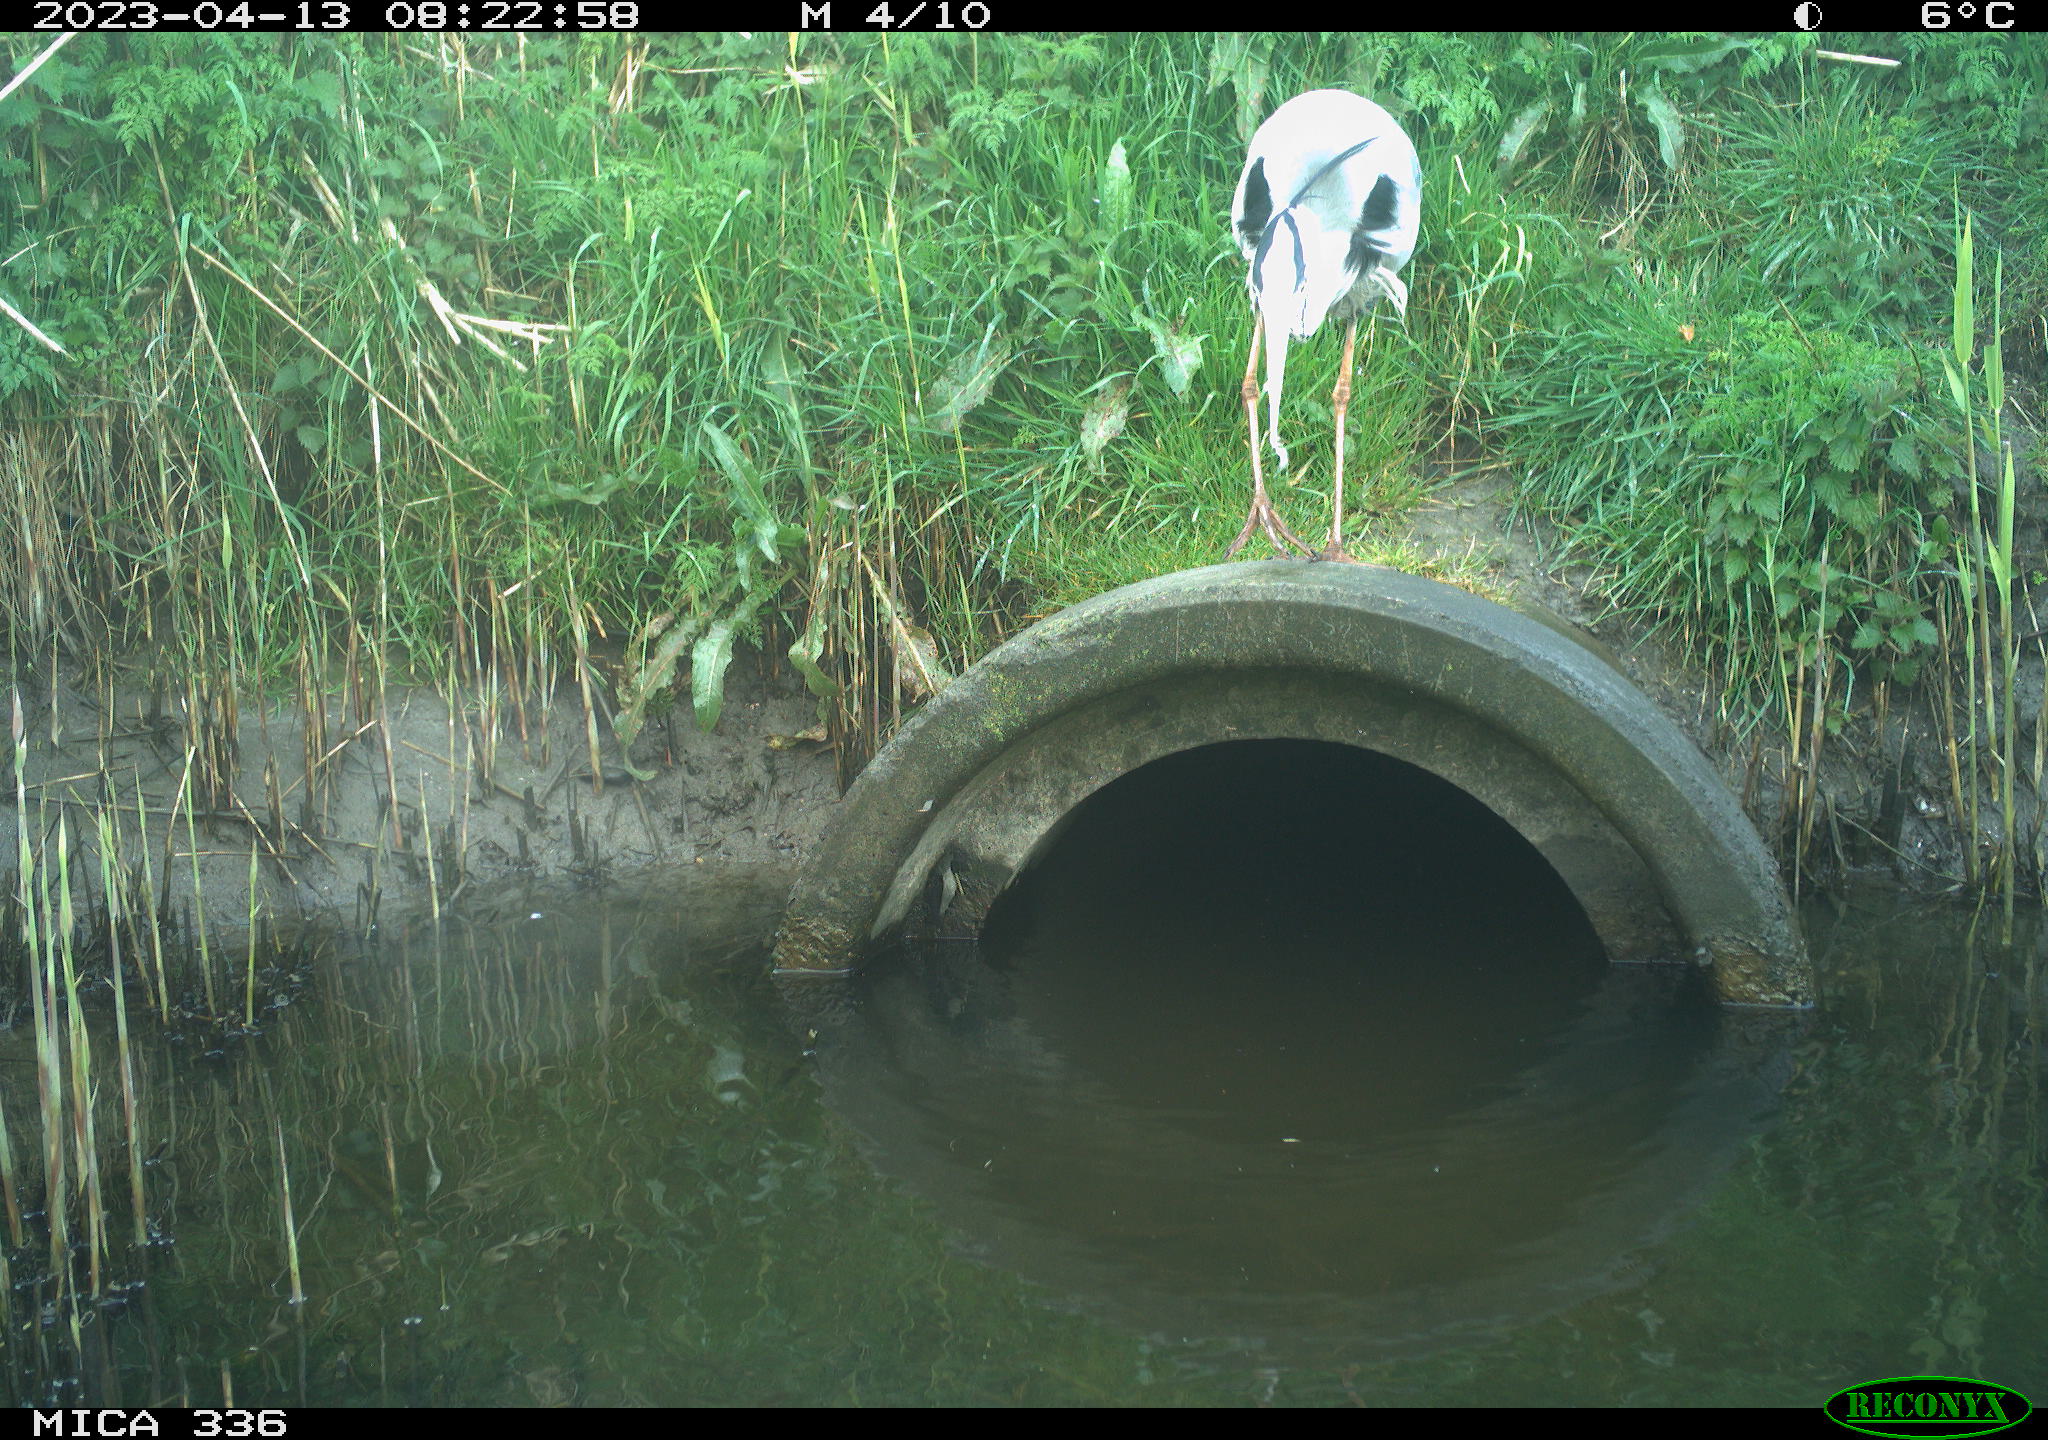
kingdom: Animalia
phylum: Chordata
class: Aves
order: Pelecaniformes
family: Ardeidae
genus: Ardea
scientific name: Ardea
